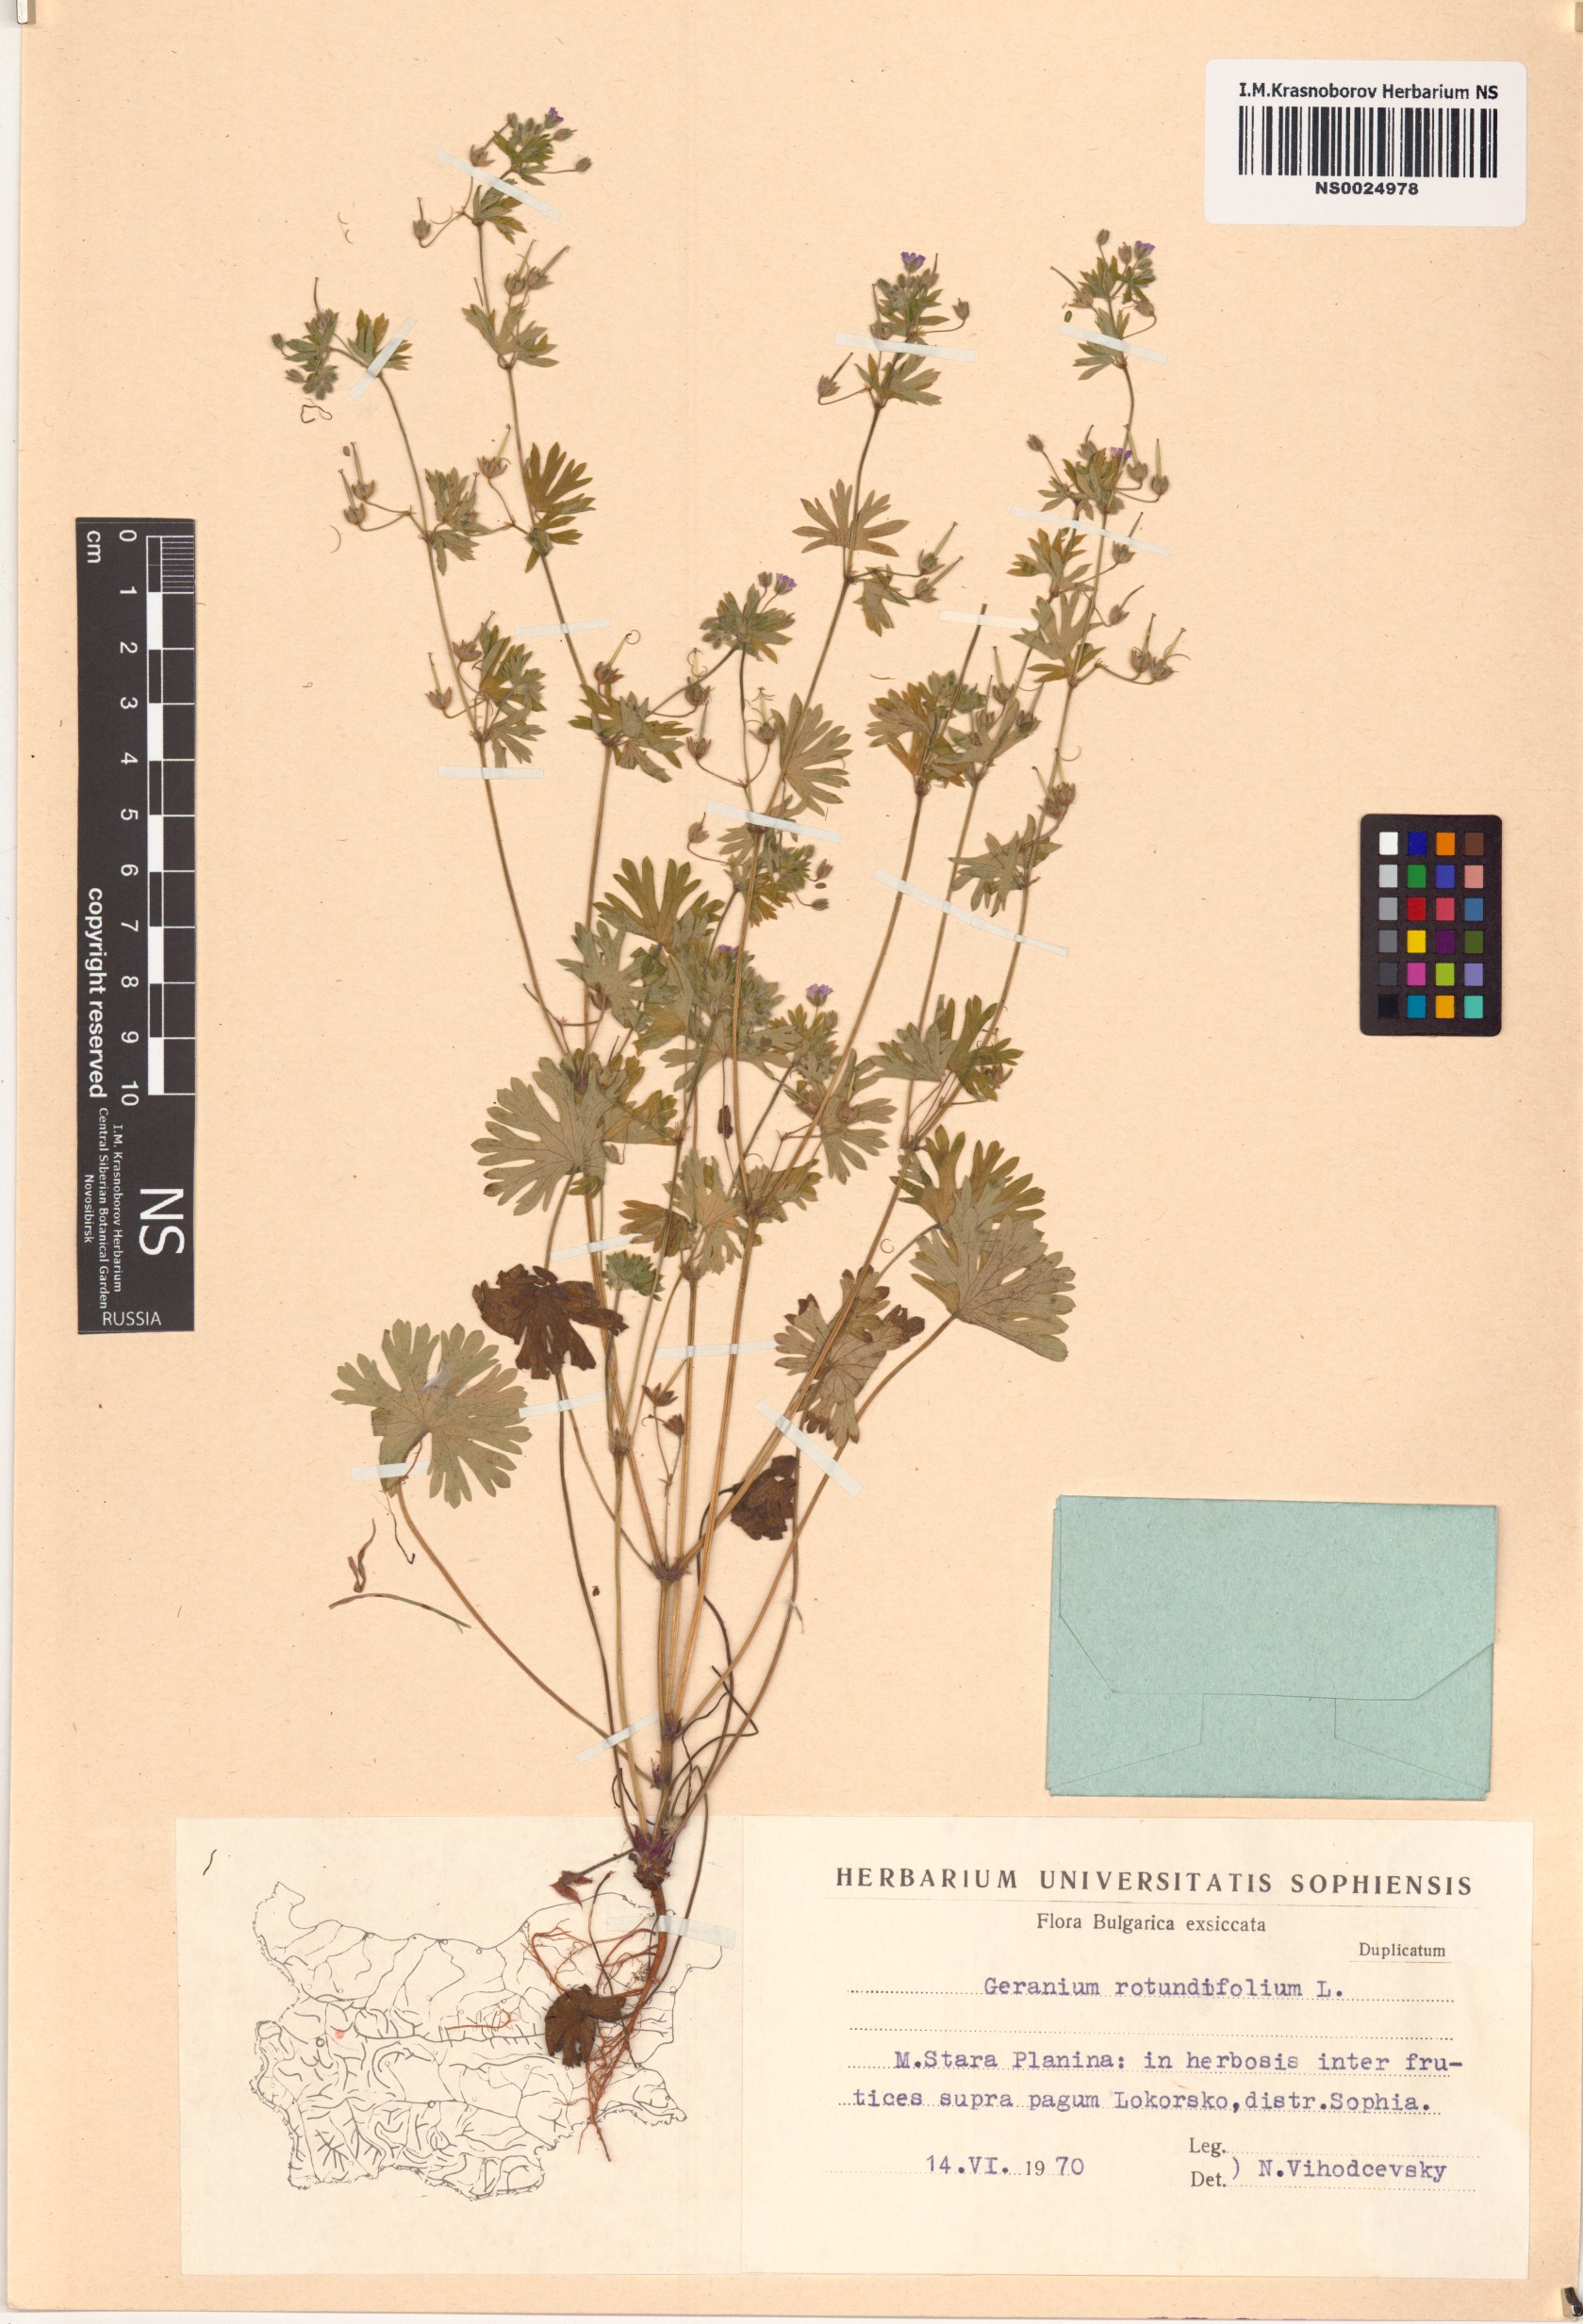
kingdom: Plantae
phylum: Tracheophyta
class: Magnoliopsida
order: Geraniales
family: Geraniaceae
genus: Geranium
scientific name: Geranium rotundifolium
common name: Round-leaved crane's-bill
